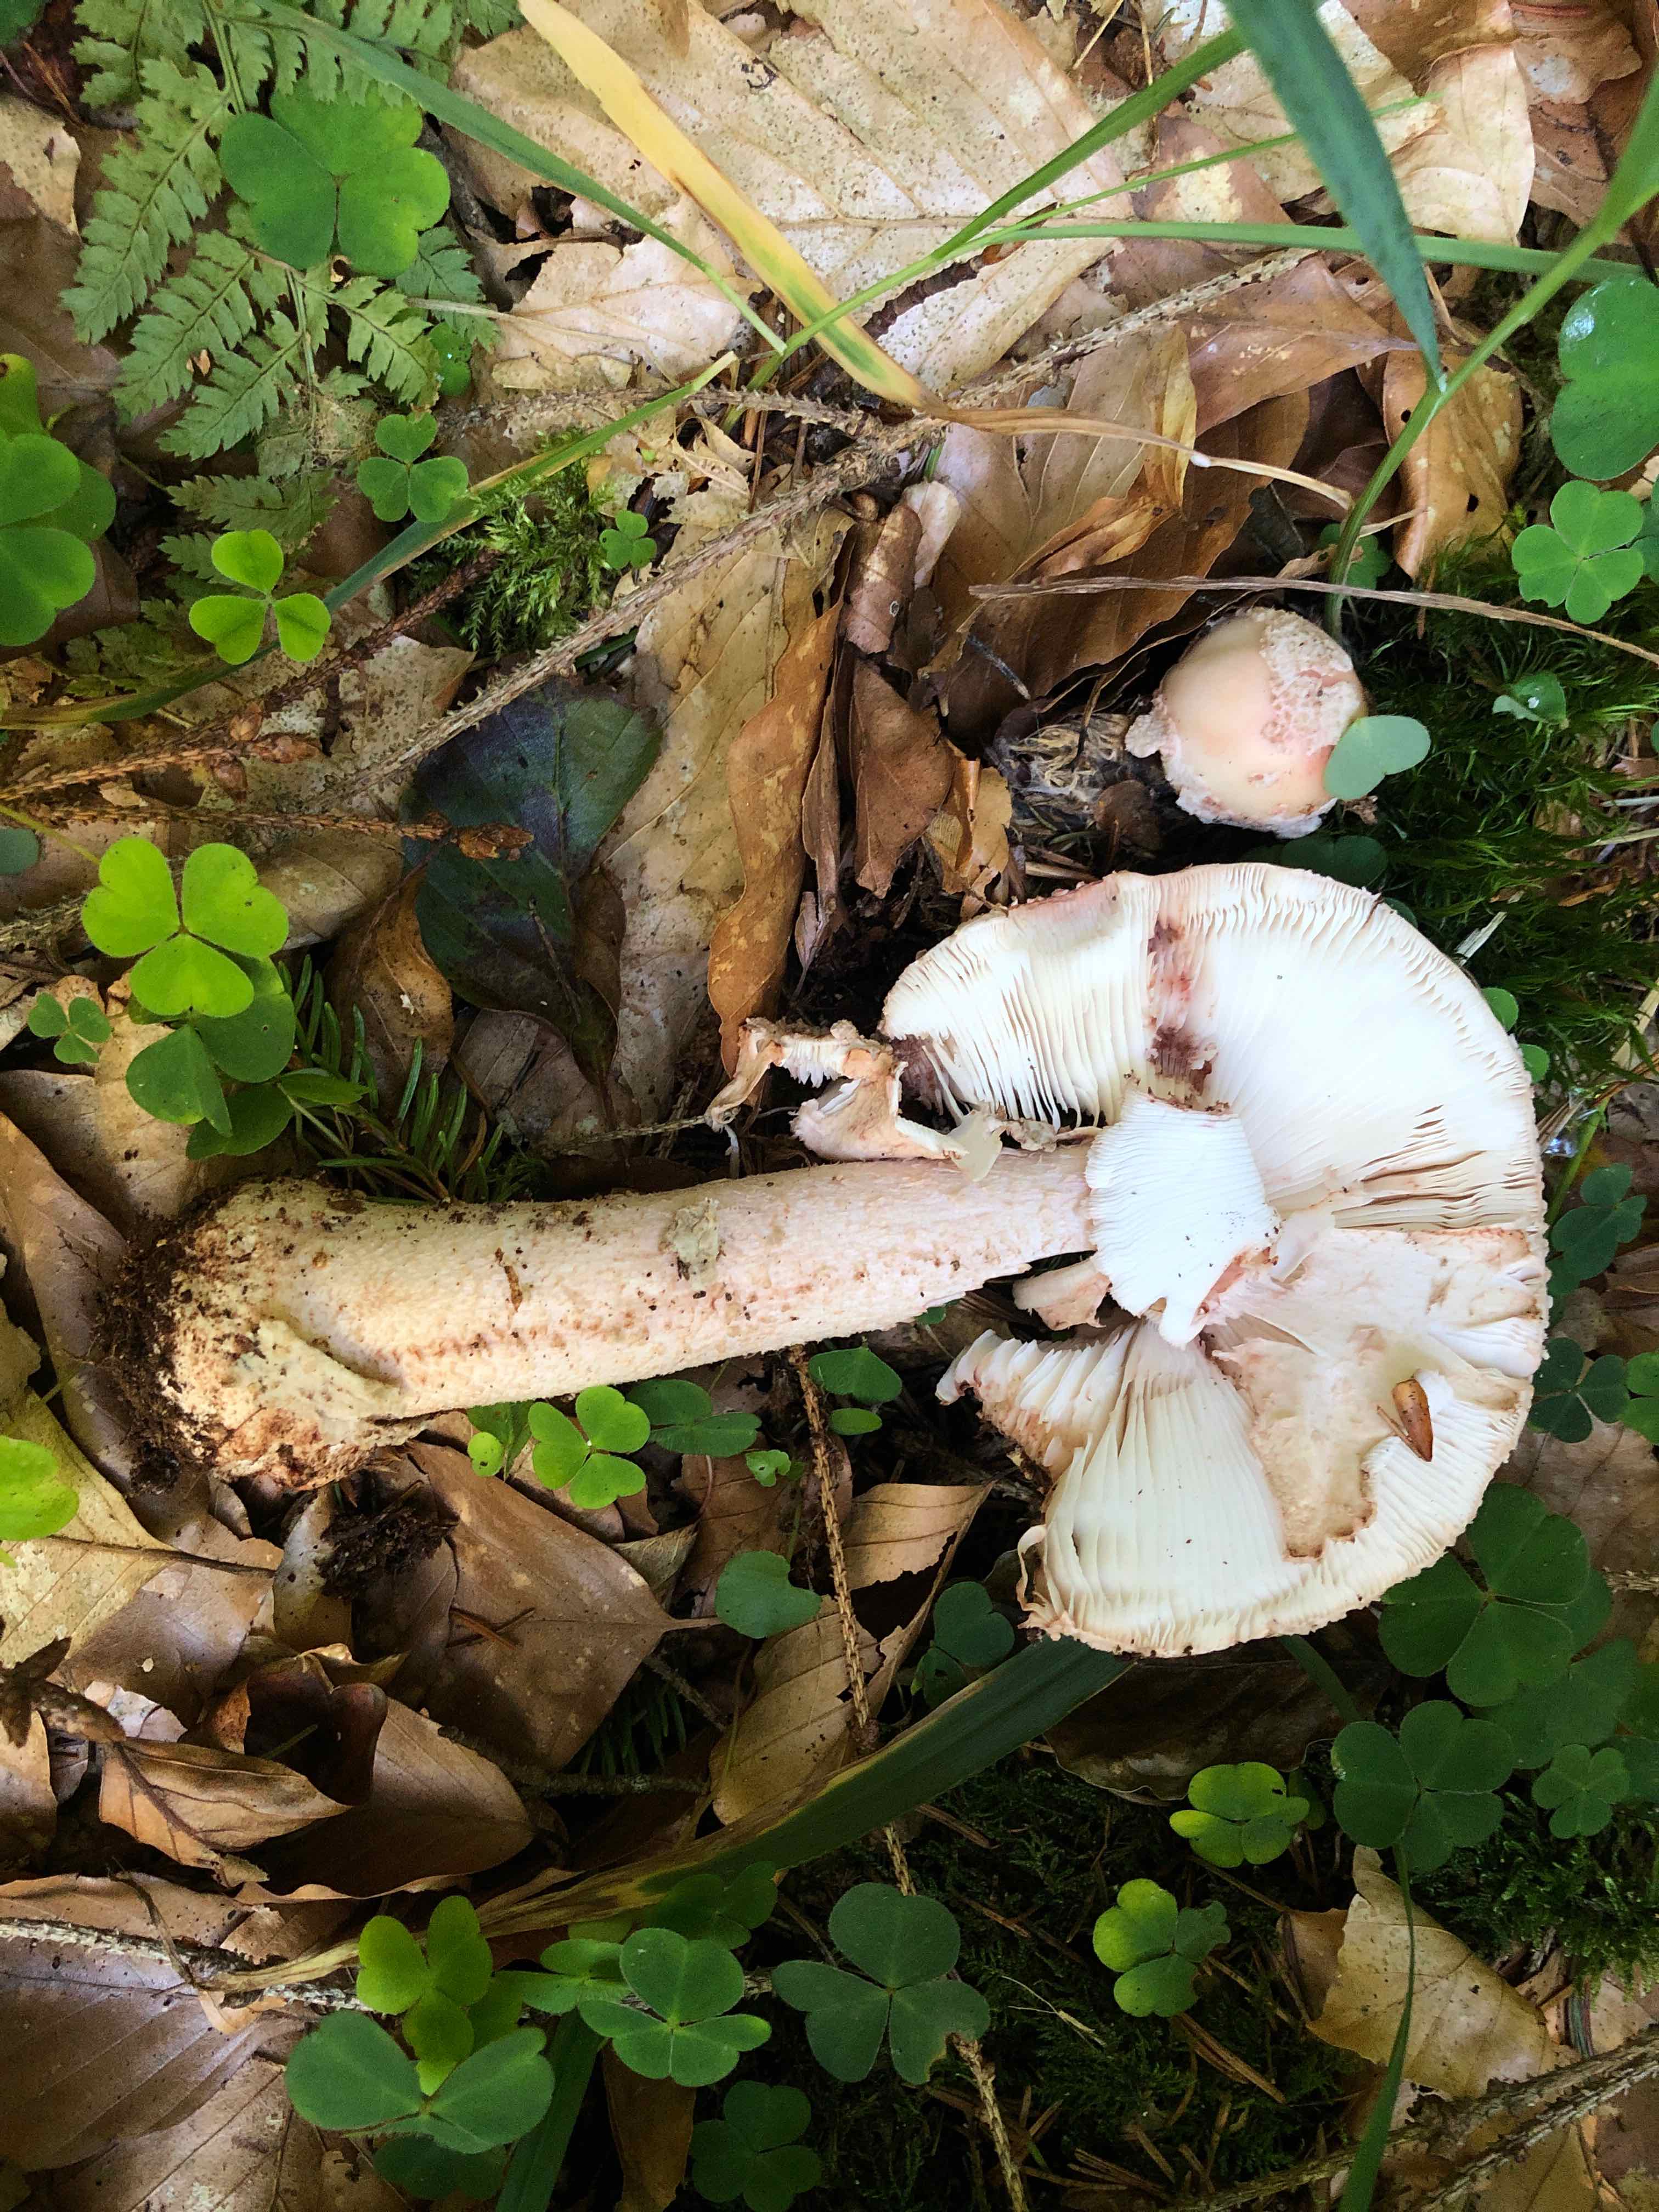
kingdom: Fungi
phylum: Basidiomycota
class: Agaricomycetes
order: Agaricales
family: Amanitaceae
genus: Amanita
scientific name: Amanita rubescens
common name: rødmende fluesvamp
